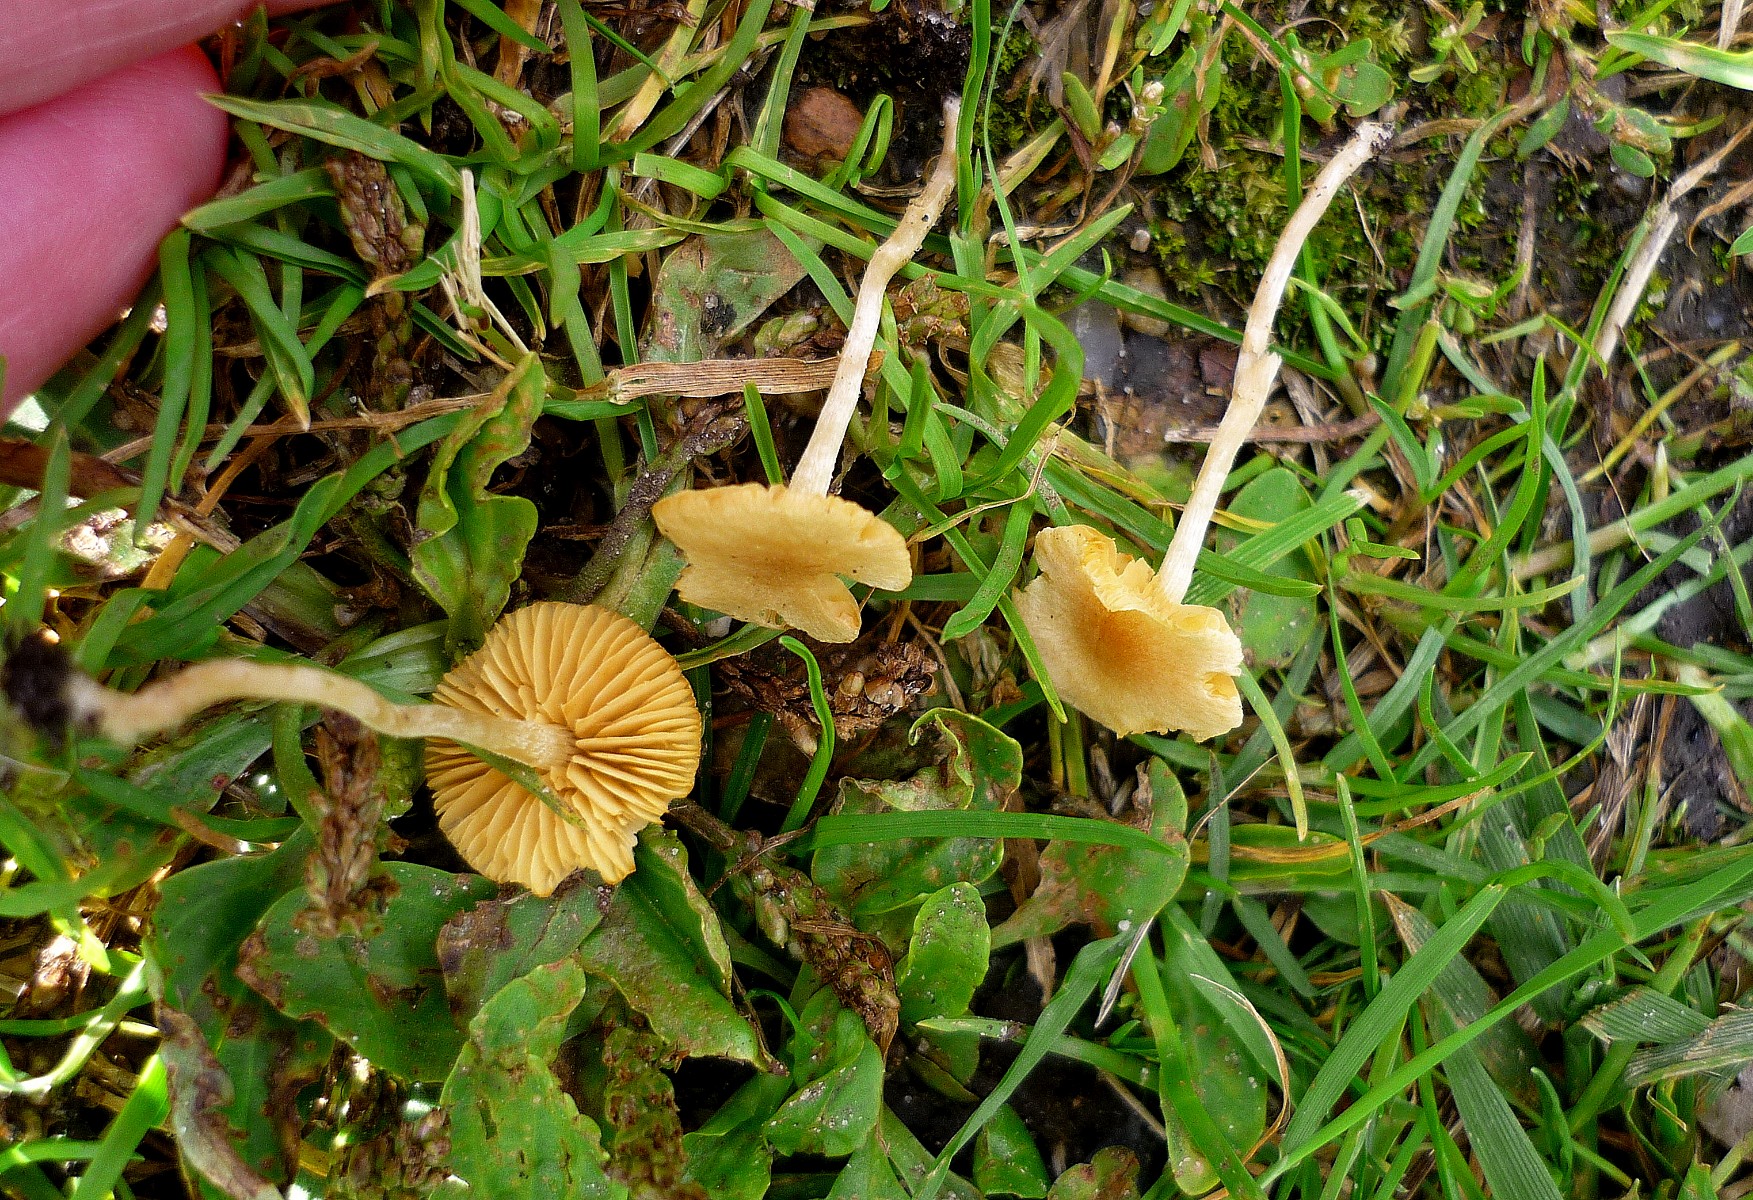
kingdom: Fungi
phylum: Basidiomycota
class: Agaricomycetes
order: Agaricales
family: Tubariaceae
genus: Tubaria
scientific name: Tubaria dispersa
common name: tjørne-fnughat
